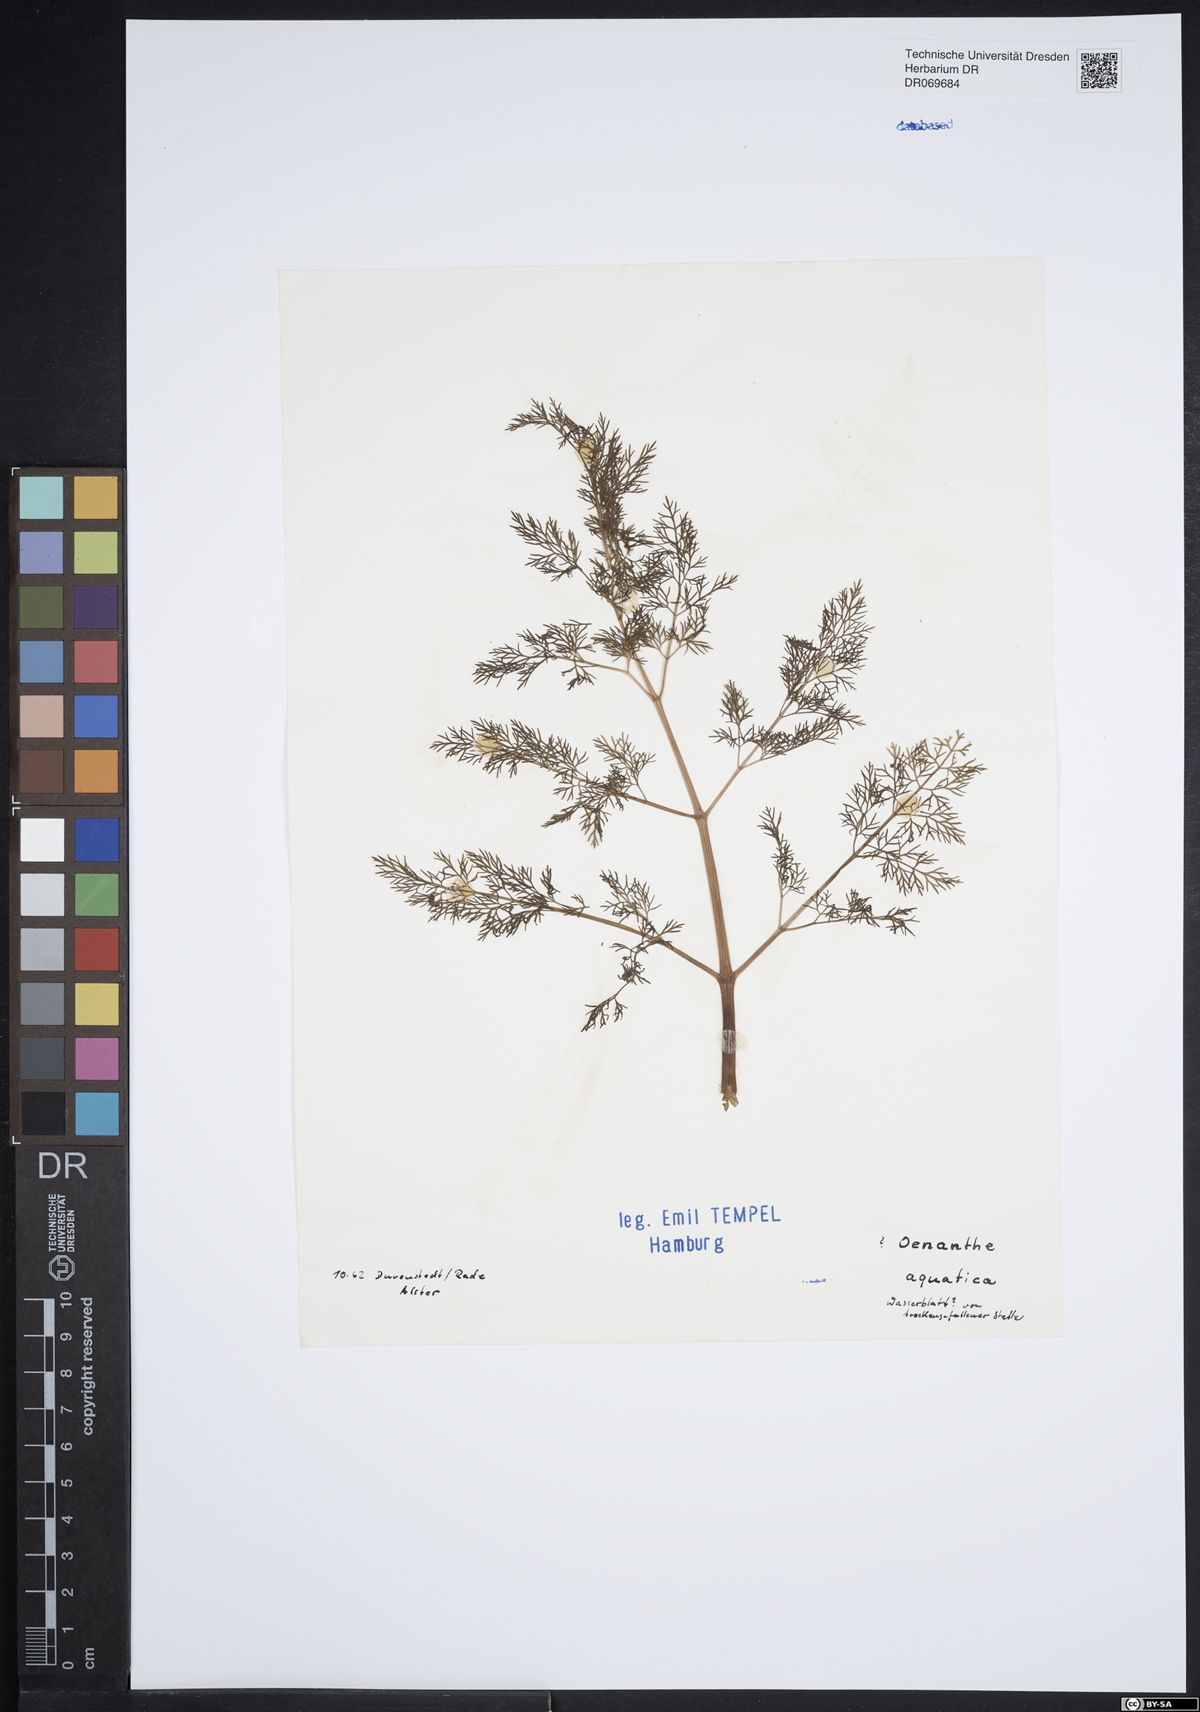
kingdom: Plantae
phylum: Tracheophyta
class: Magnoliopsida
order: Apiales
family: Apiaceae
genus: Oenanthe
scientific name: Oenanthe aquatica
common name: Fine-leaved water-dropwort
